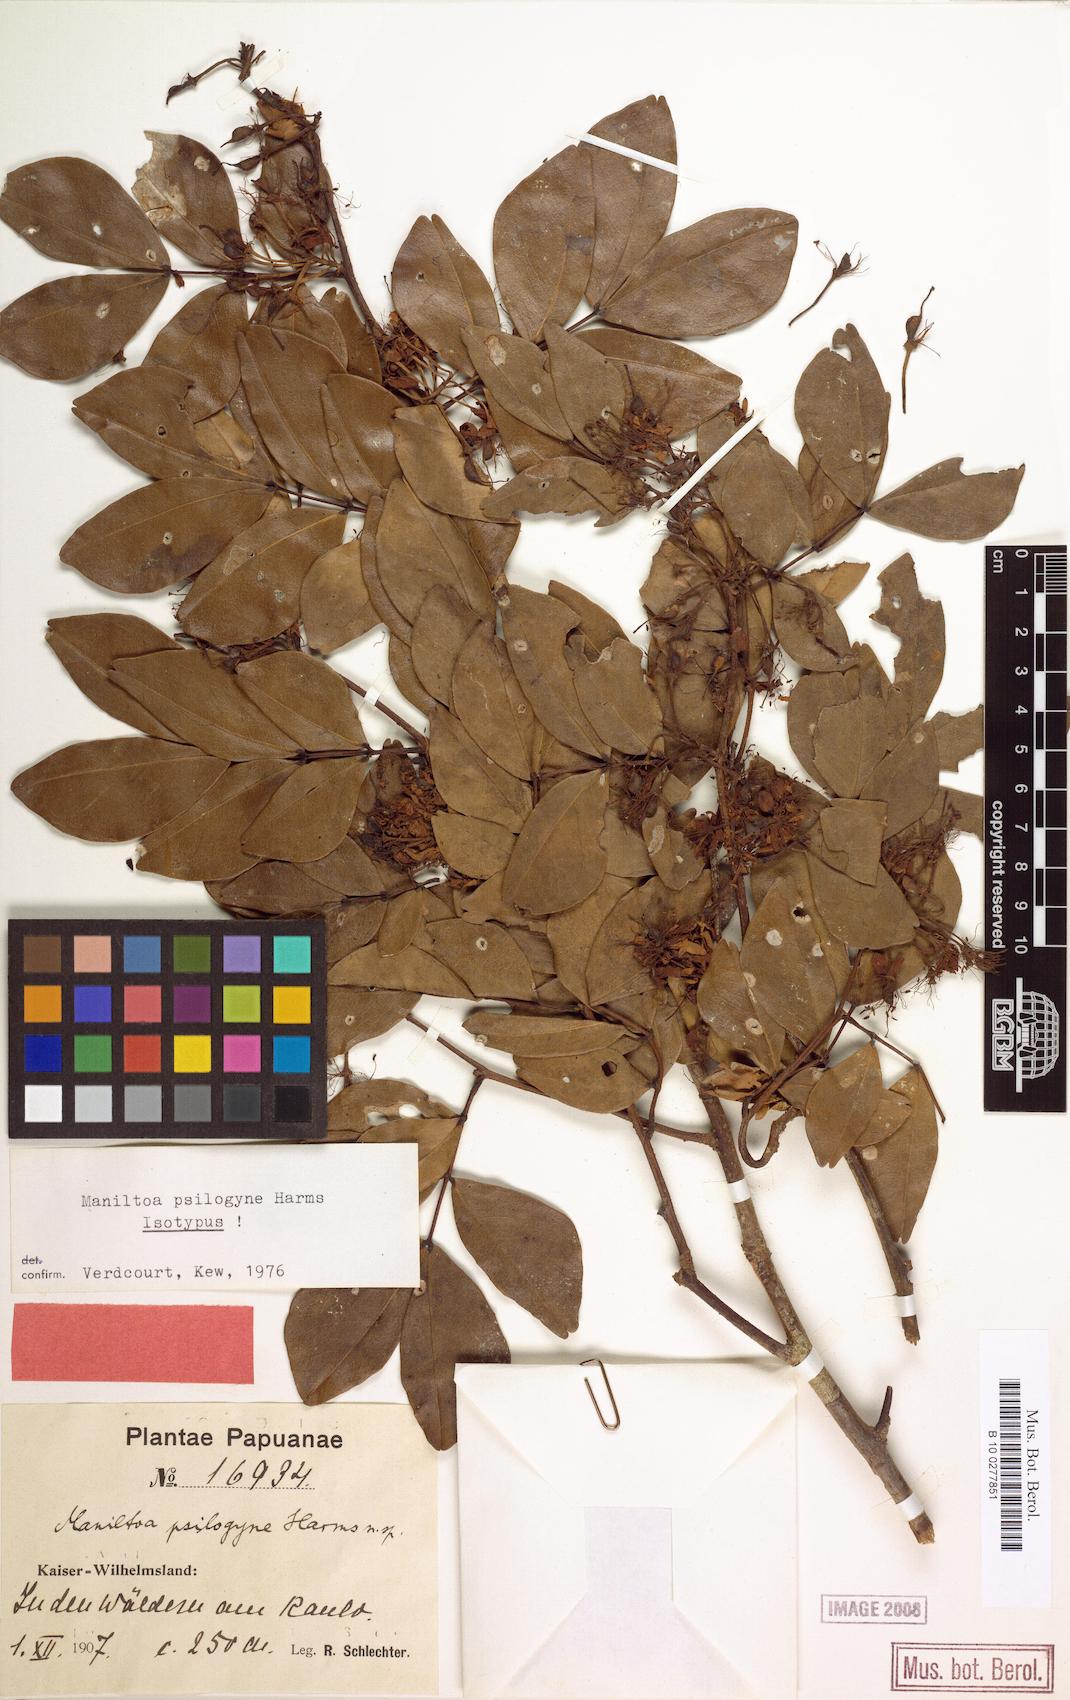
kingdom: Plantae
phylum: Tracheophyta
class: Magnoliopsida
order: Fabales
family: Fabaceae
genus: Cynometra
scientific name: Cynometra psilogyne
